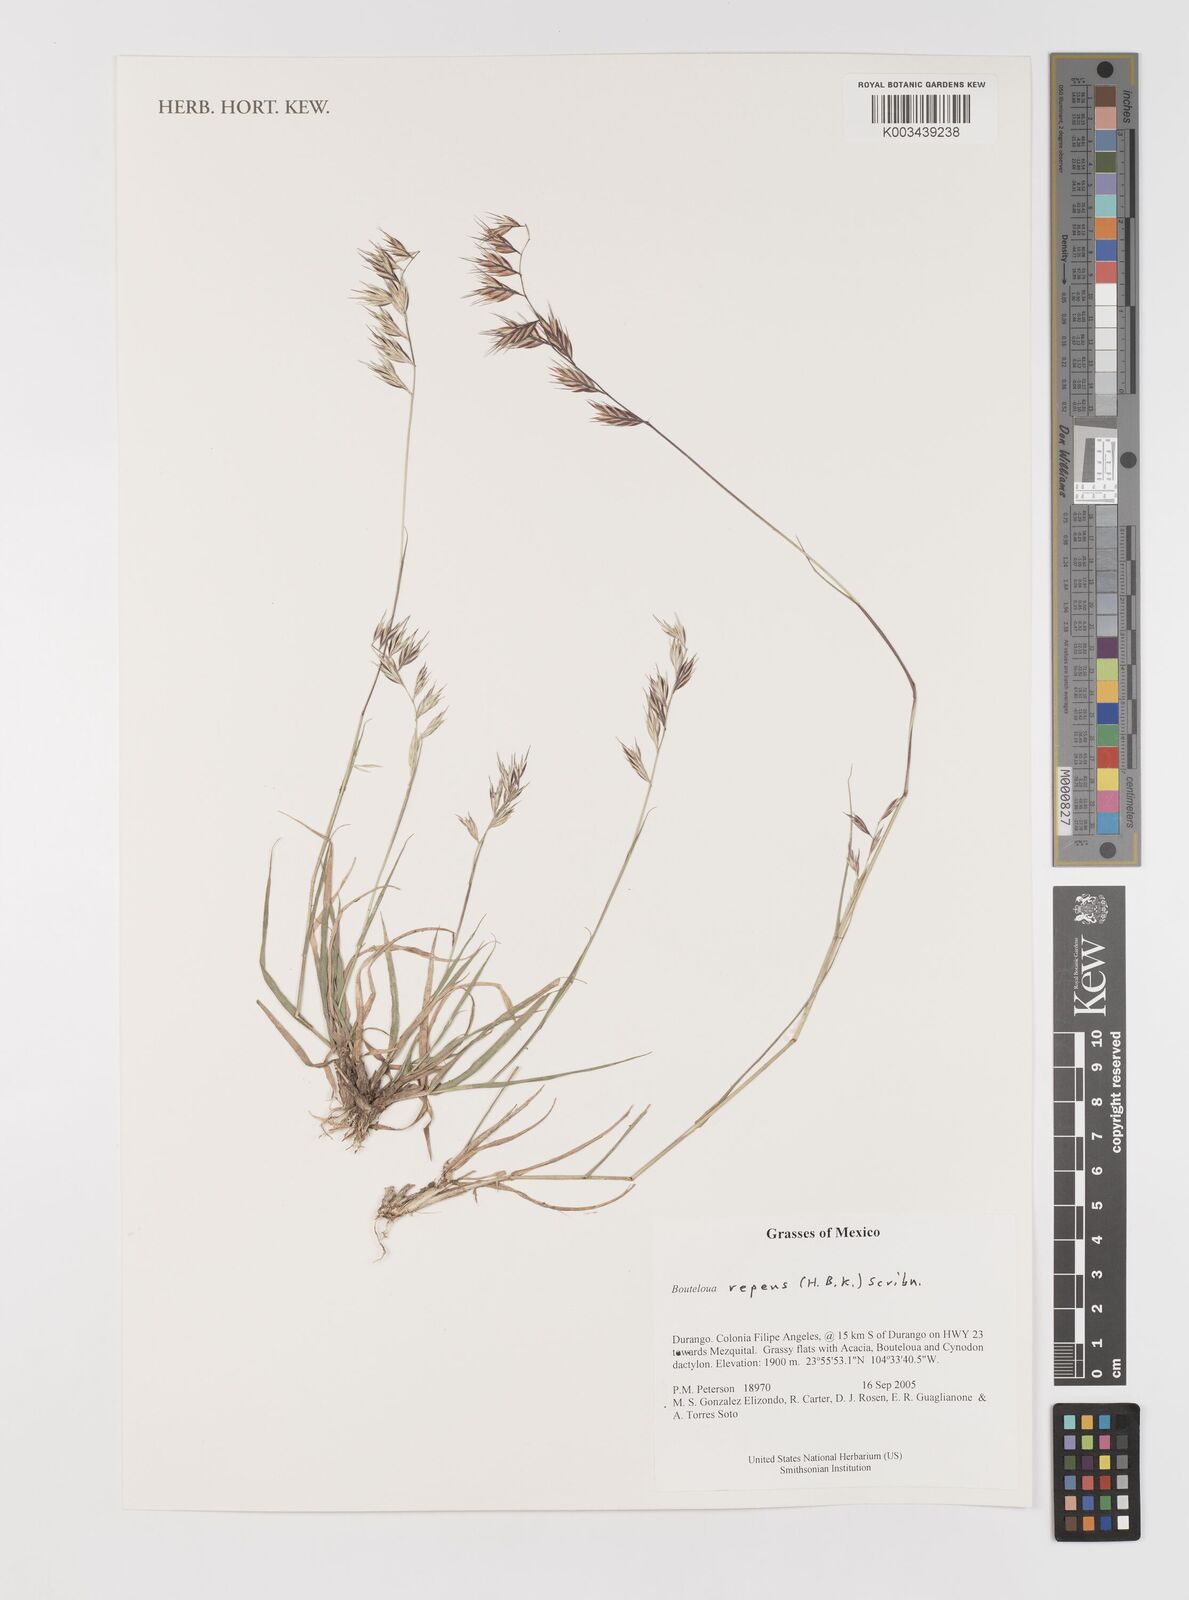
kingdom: Plantae
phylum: Tracheophyta
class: Liliopsida
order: Poales
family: Poaceae
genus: Bouteloua
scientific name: Bouteloua repens
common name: Slender grama
